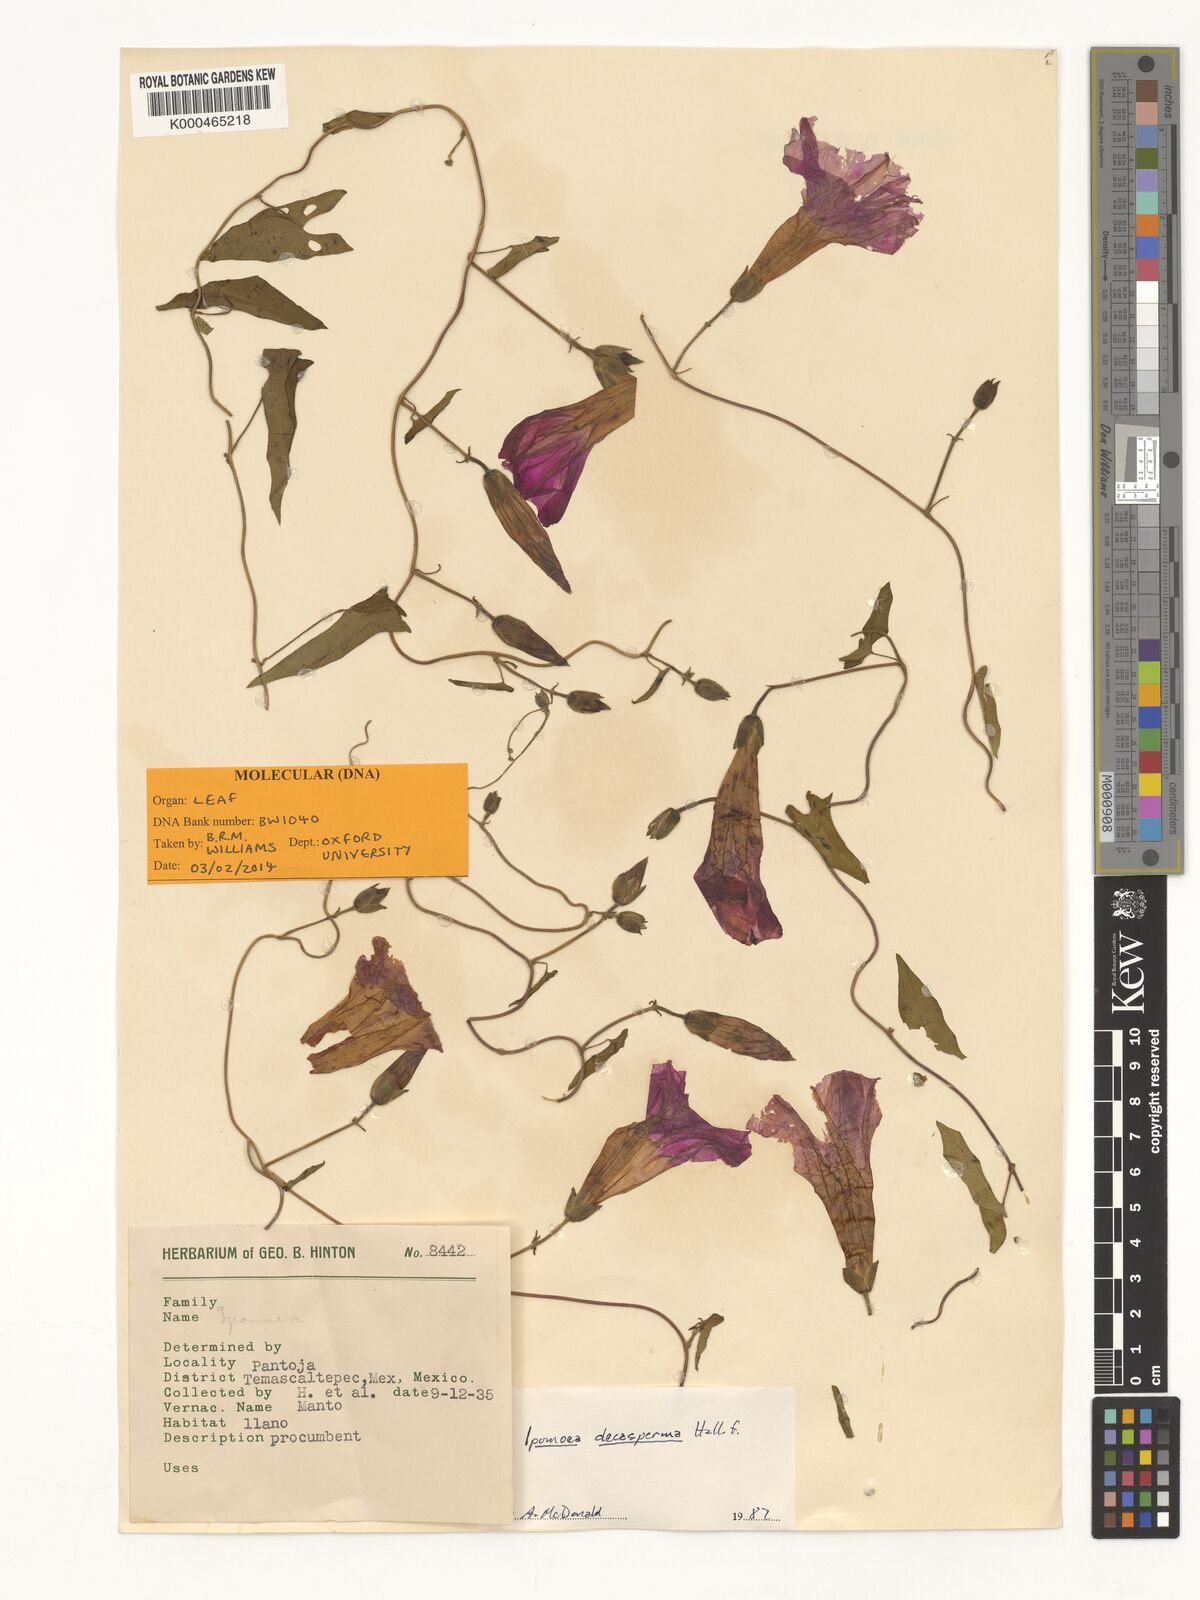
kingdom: Plantae
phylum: Tracheophyta
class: Magnoliopsida
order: Solanales
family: Convolvulaceae
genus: Ipomoea
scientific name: Ipomoea decasperma
